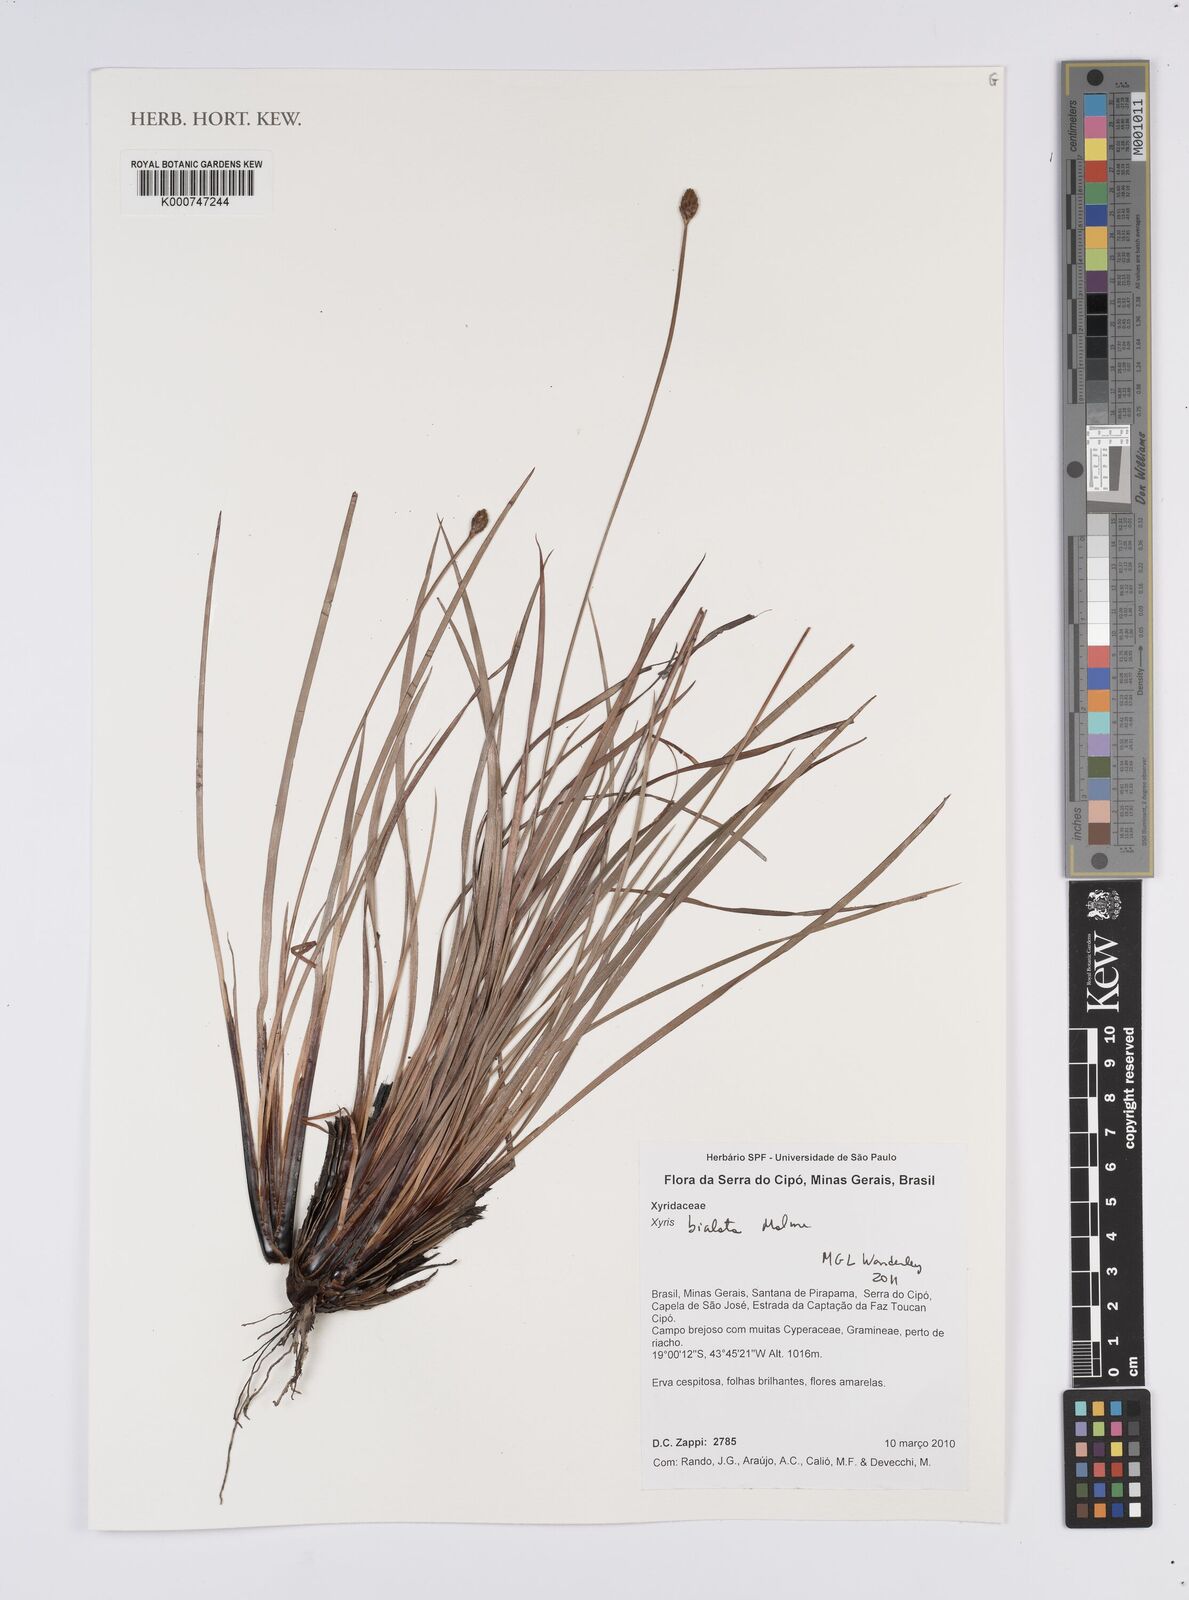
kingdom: Plantae
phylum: Tracheophyta
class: Liliopsida
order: Poales
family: Xyridaceae
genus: Xyris
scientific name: Xyris bialata
